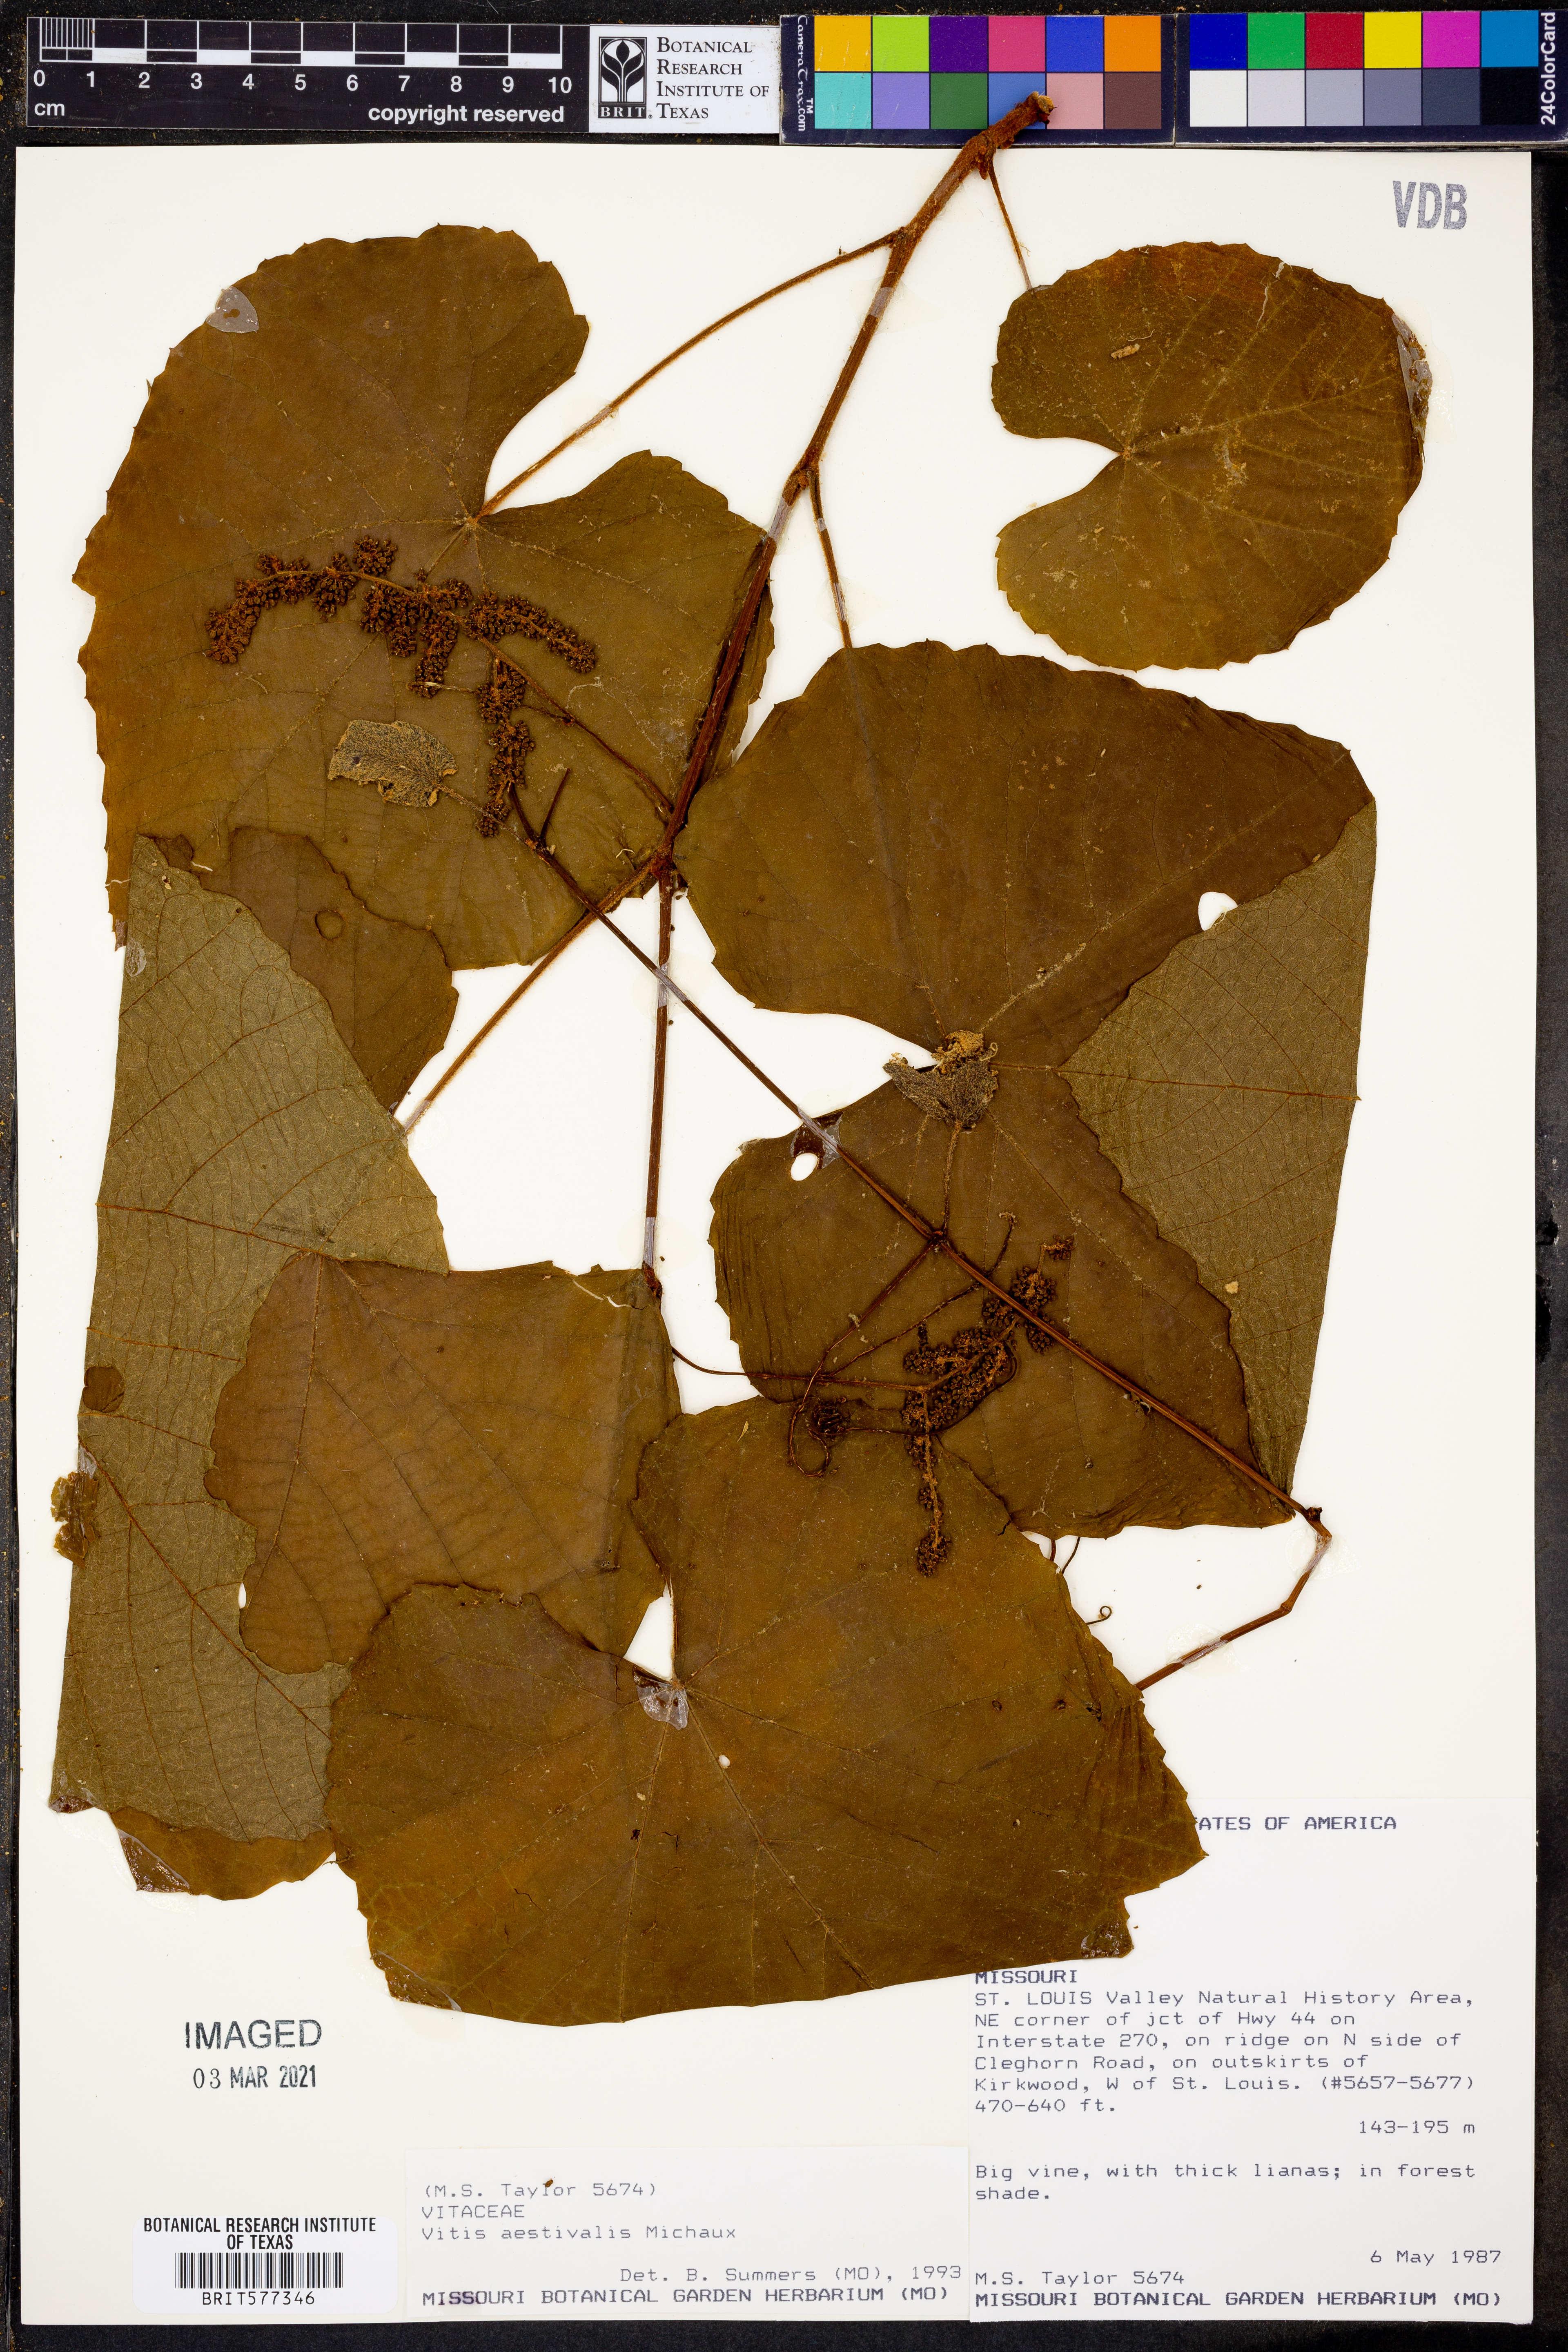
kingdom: Plantae
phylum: Tracheophyta
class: Magnoliopsida
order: Vitales
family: Vitaceae
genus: Vitis
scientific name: Vitis aestivalis
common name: Pigeon grape
